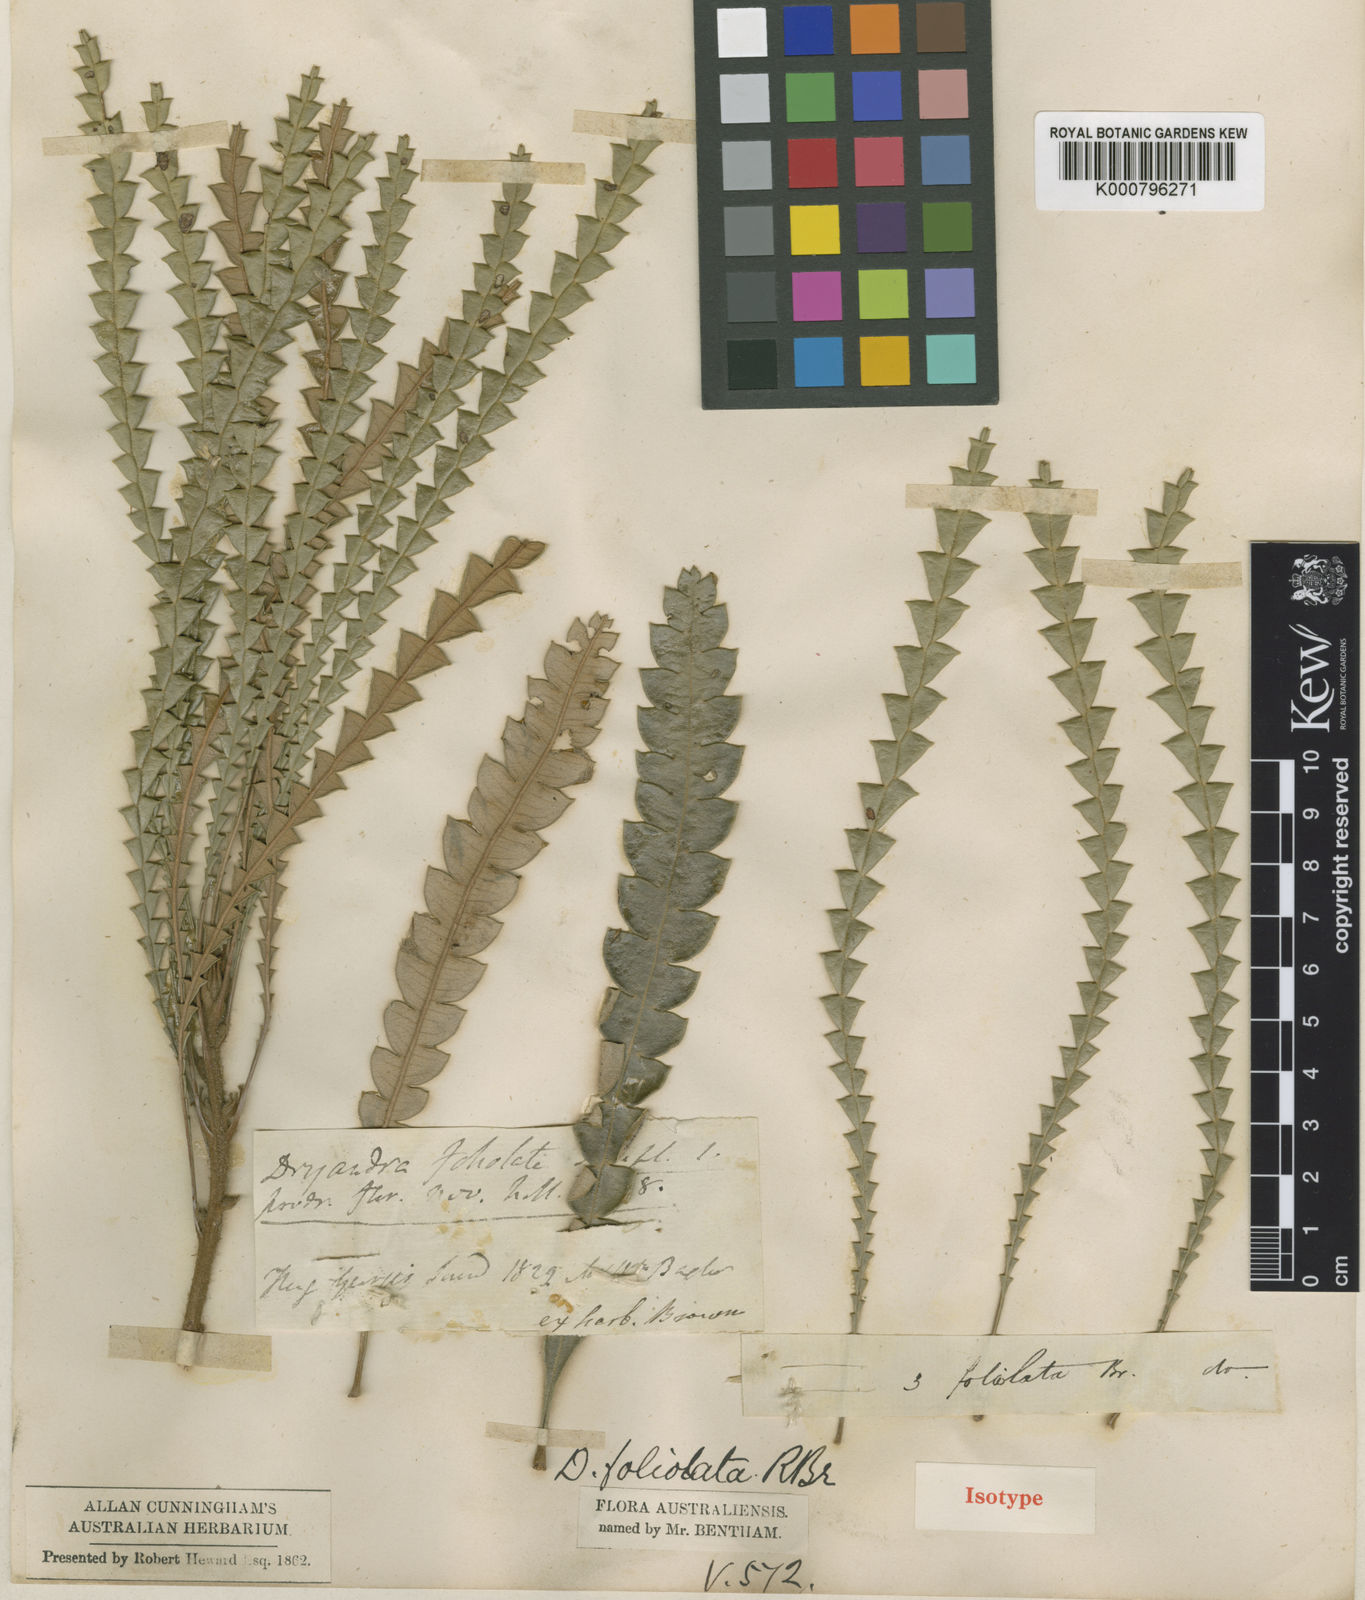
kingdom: Plantae
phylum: Tracheophyta
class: Magnoliopsida
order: Proteales
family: Proteaceae
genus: Banksia
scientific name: Banksia foliolata
